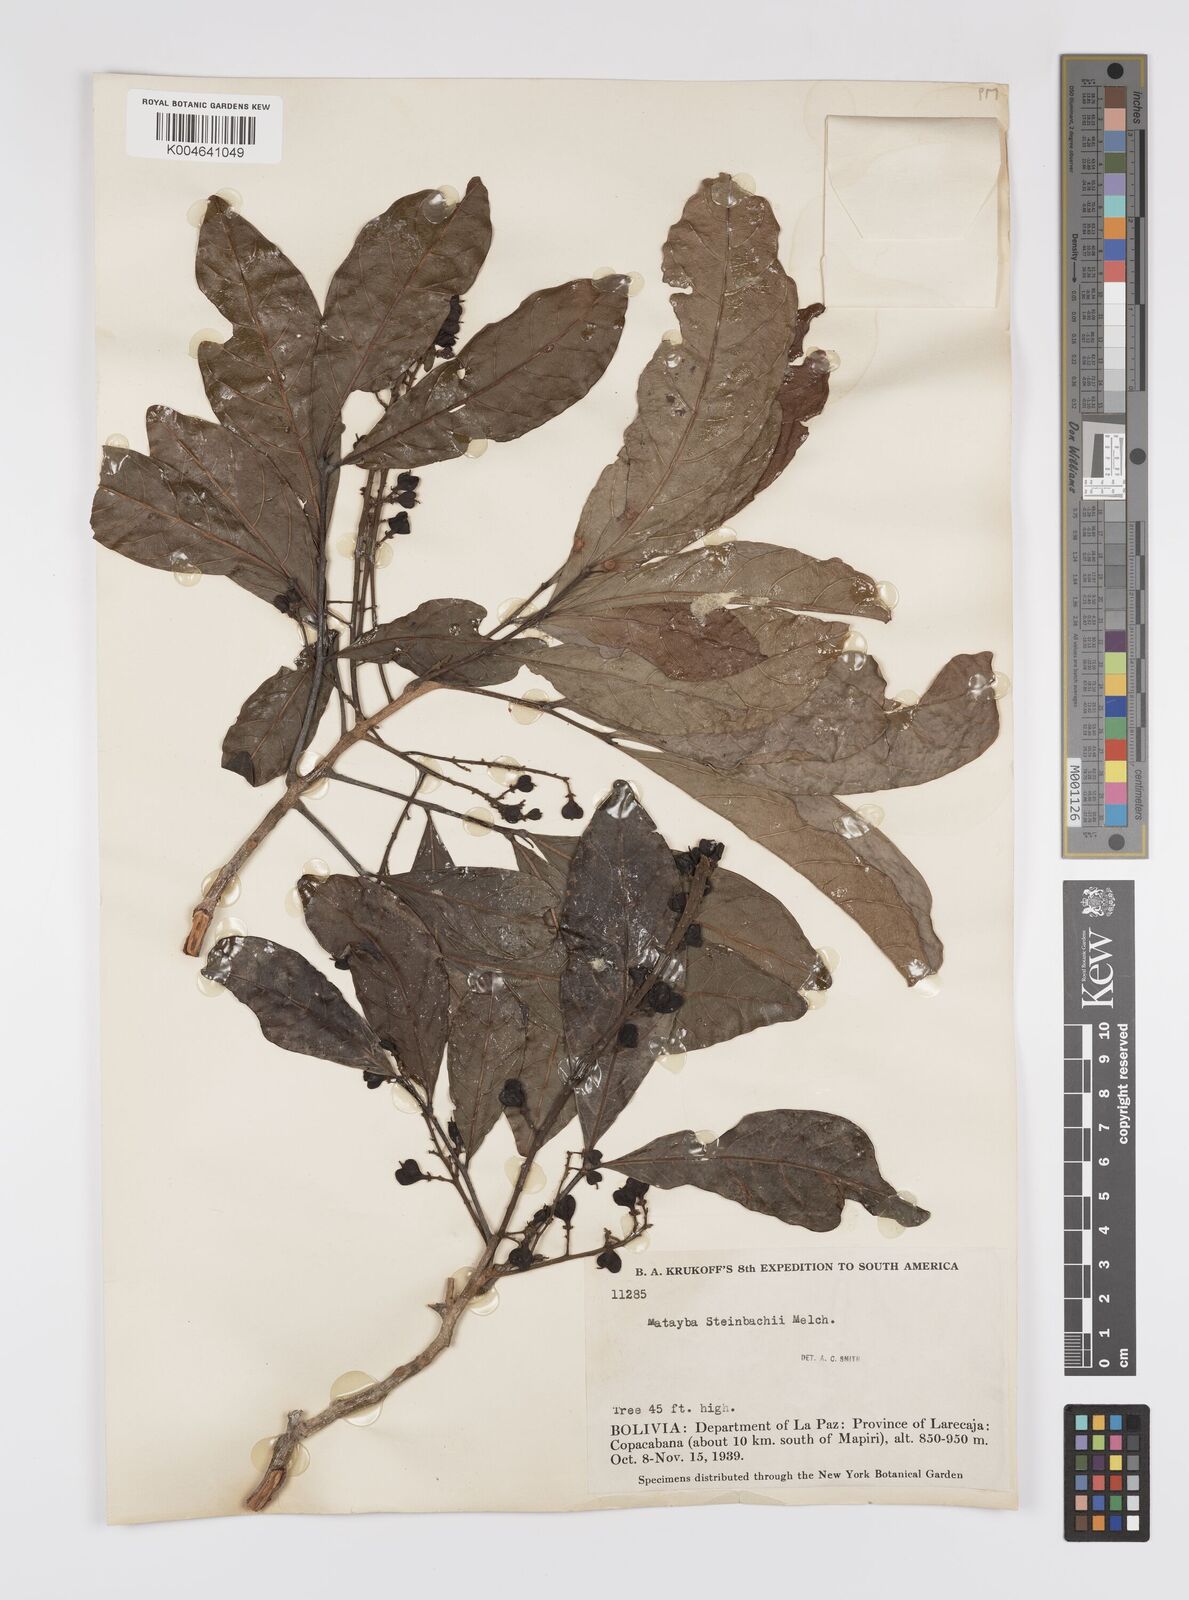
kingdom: Plantae
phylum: Tracheophyta
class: Magnoliopsida
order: Sapindales
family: Sapindaceae
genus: Matayba
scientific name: Matayba guianensis
